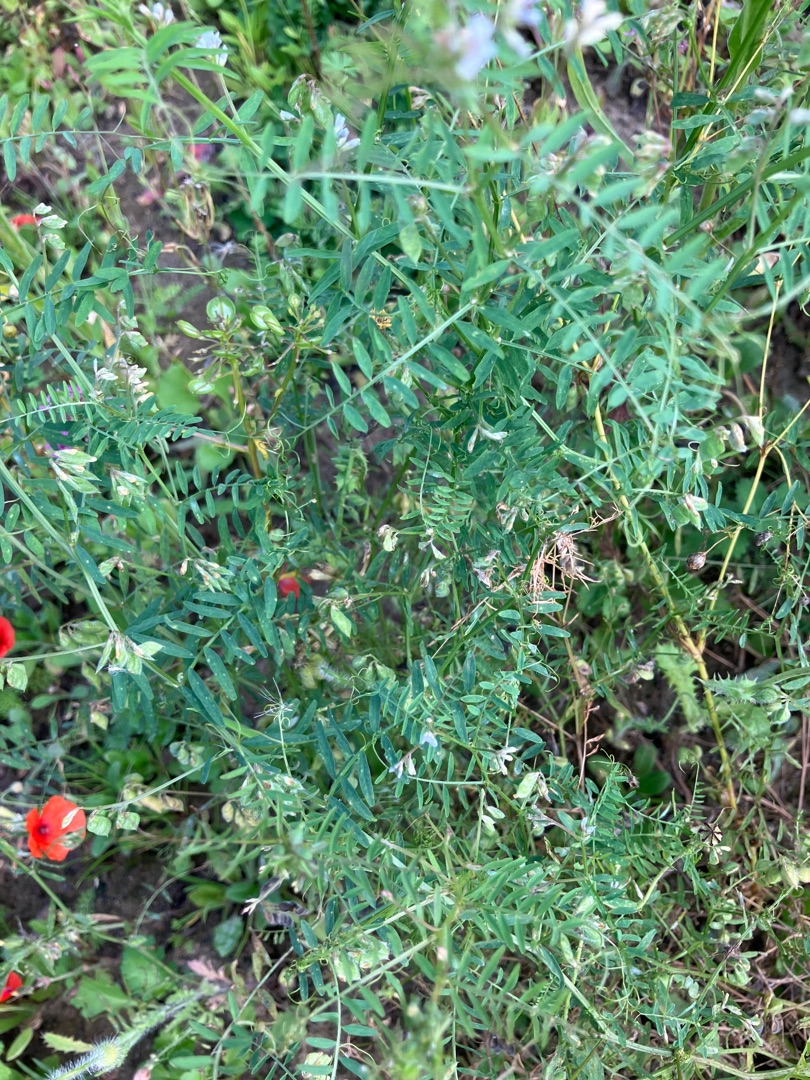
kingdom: Plantae
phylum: Tracheophyta
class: Magnoliopsida
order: Fabales
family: Fabaceae
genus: Vicia
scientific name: Vicia hirsuta
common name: Tofrøet vikke
